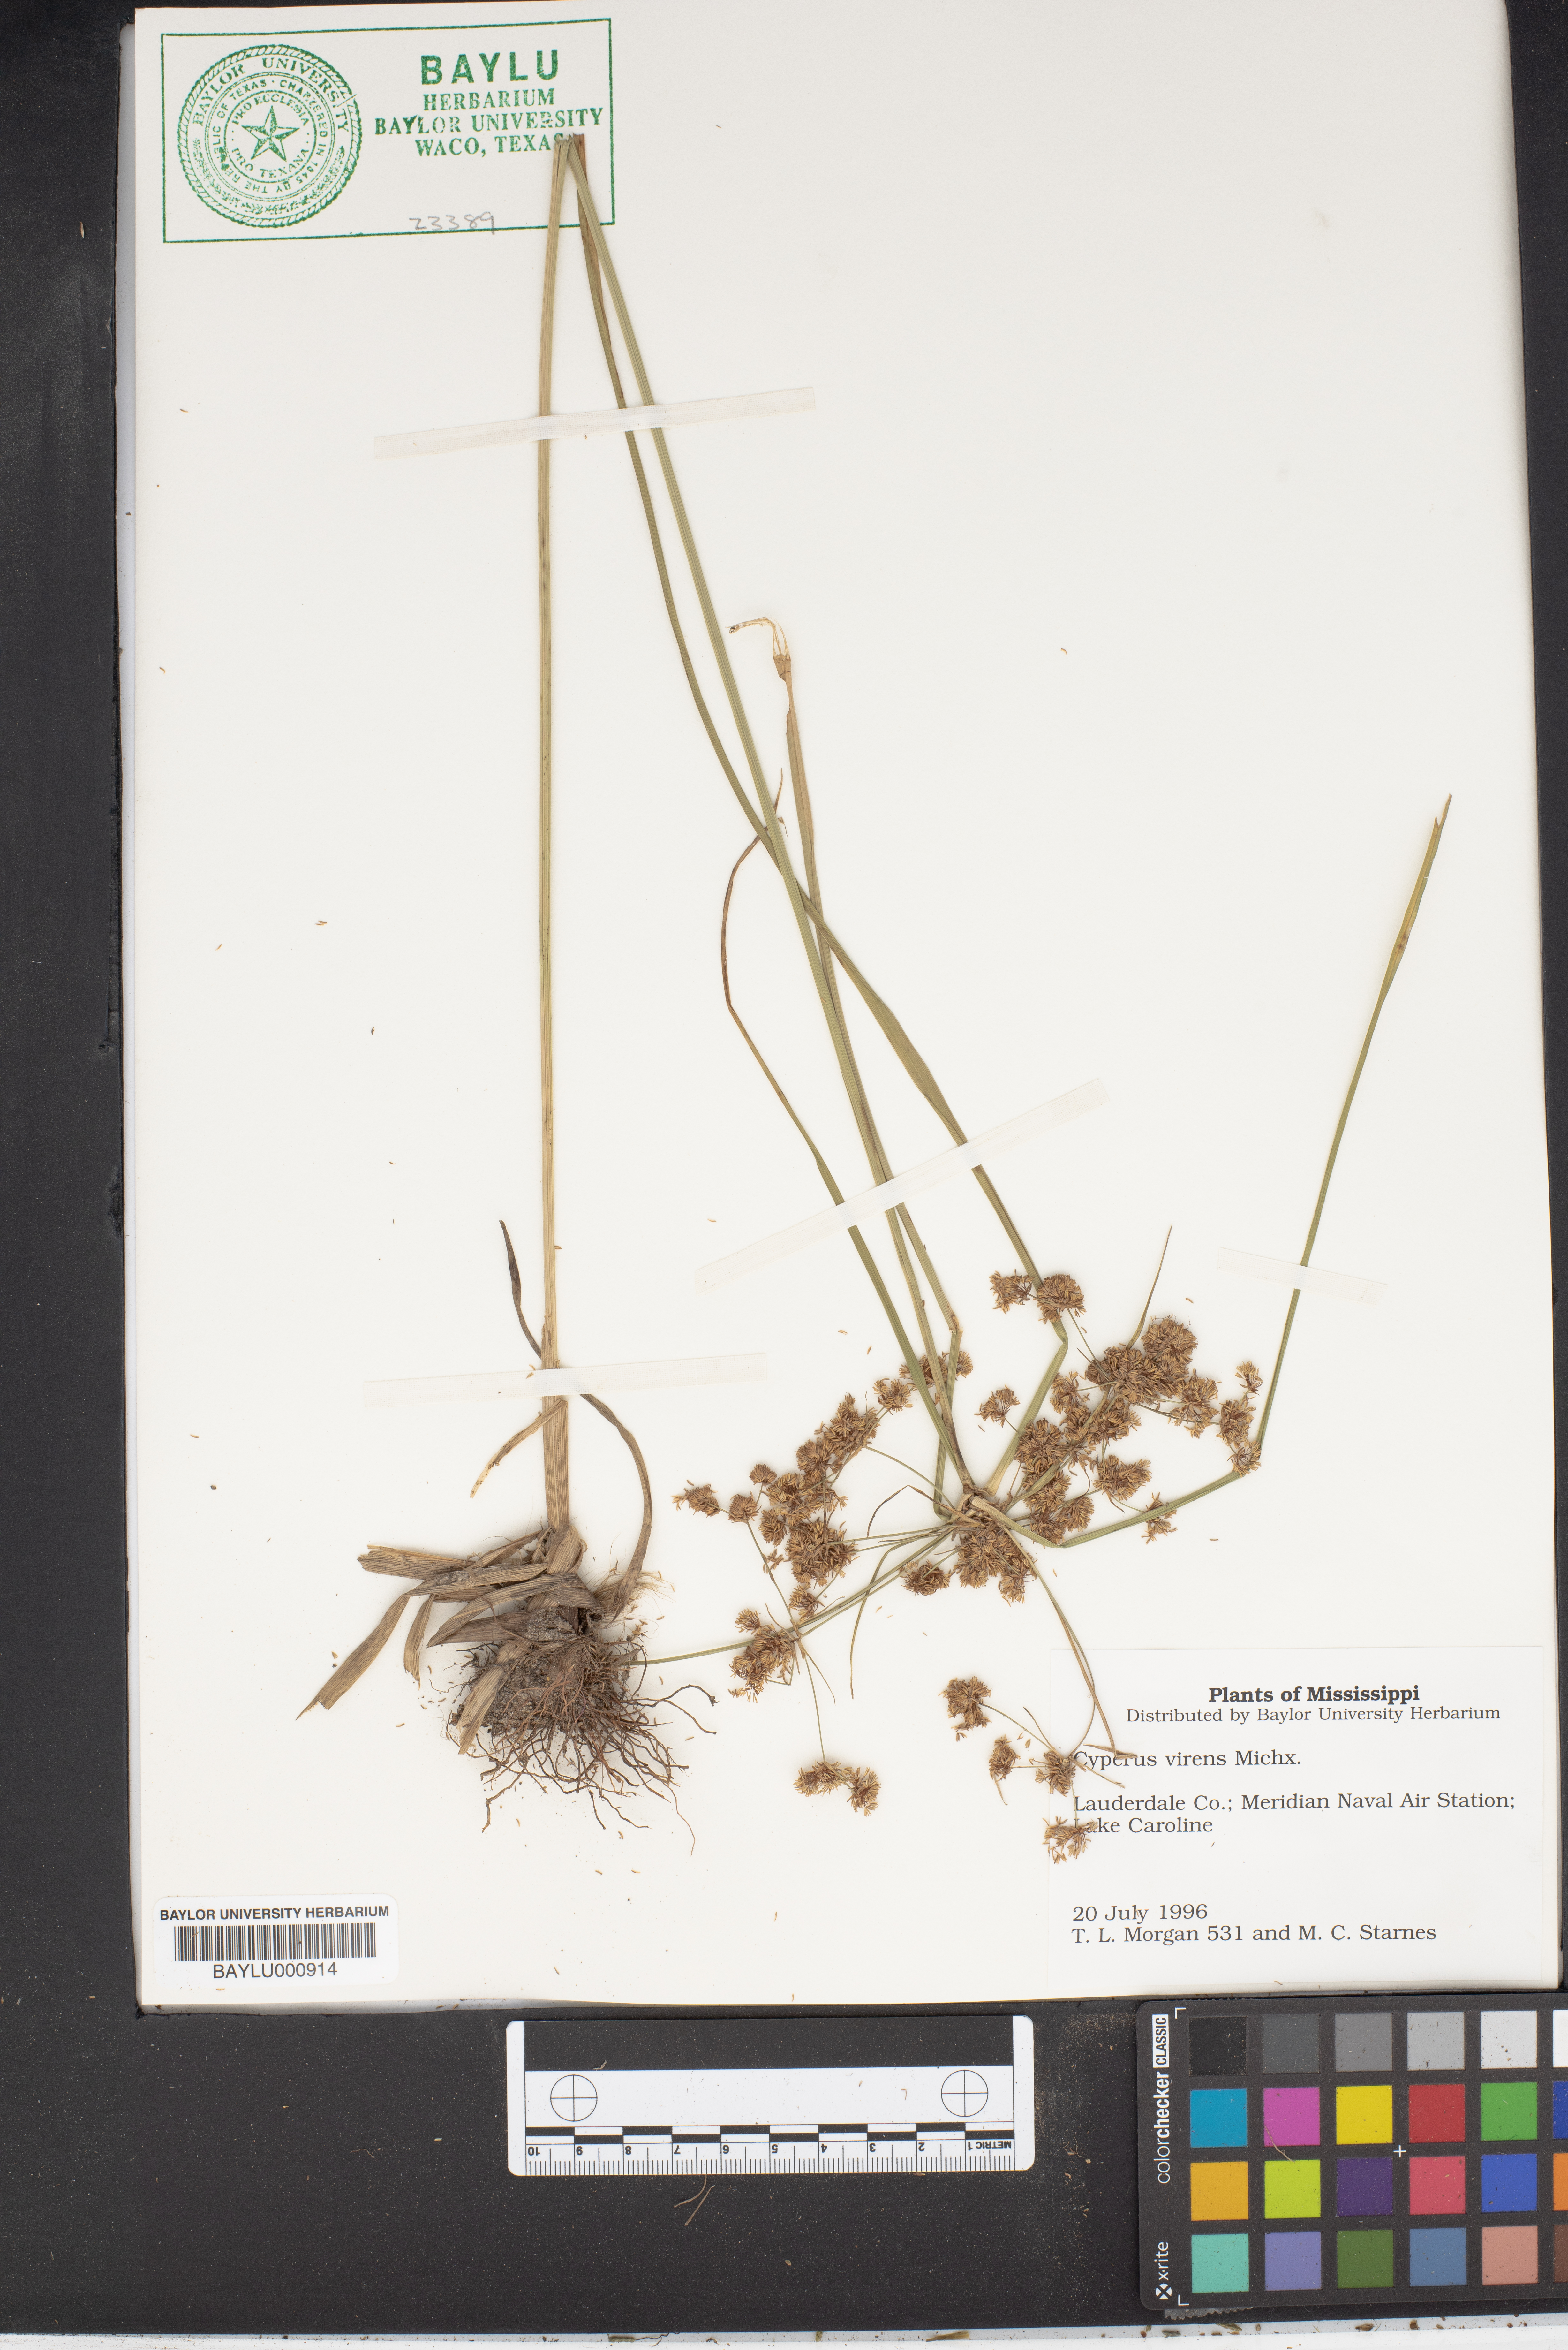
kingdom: Plantae
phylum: Tracheophyta
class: Liliopsida
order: Poales
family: Cyperaceae
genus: Cyperus
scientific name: Cyperus virens
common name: Green flatsedge
